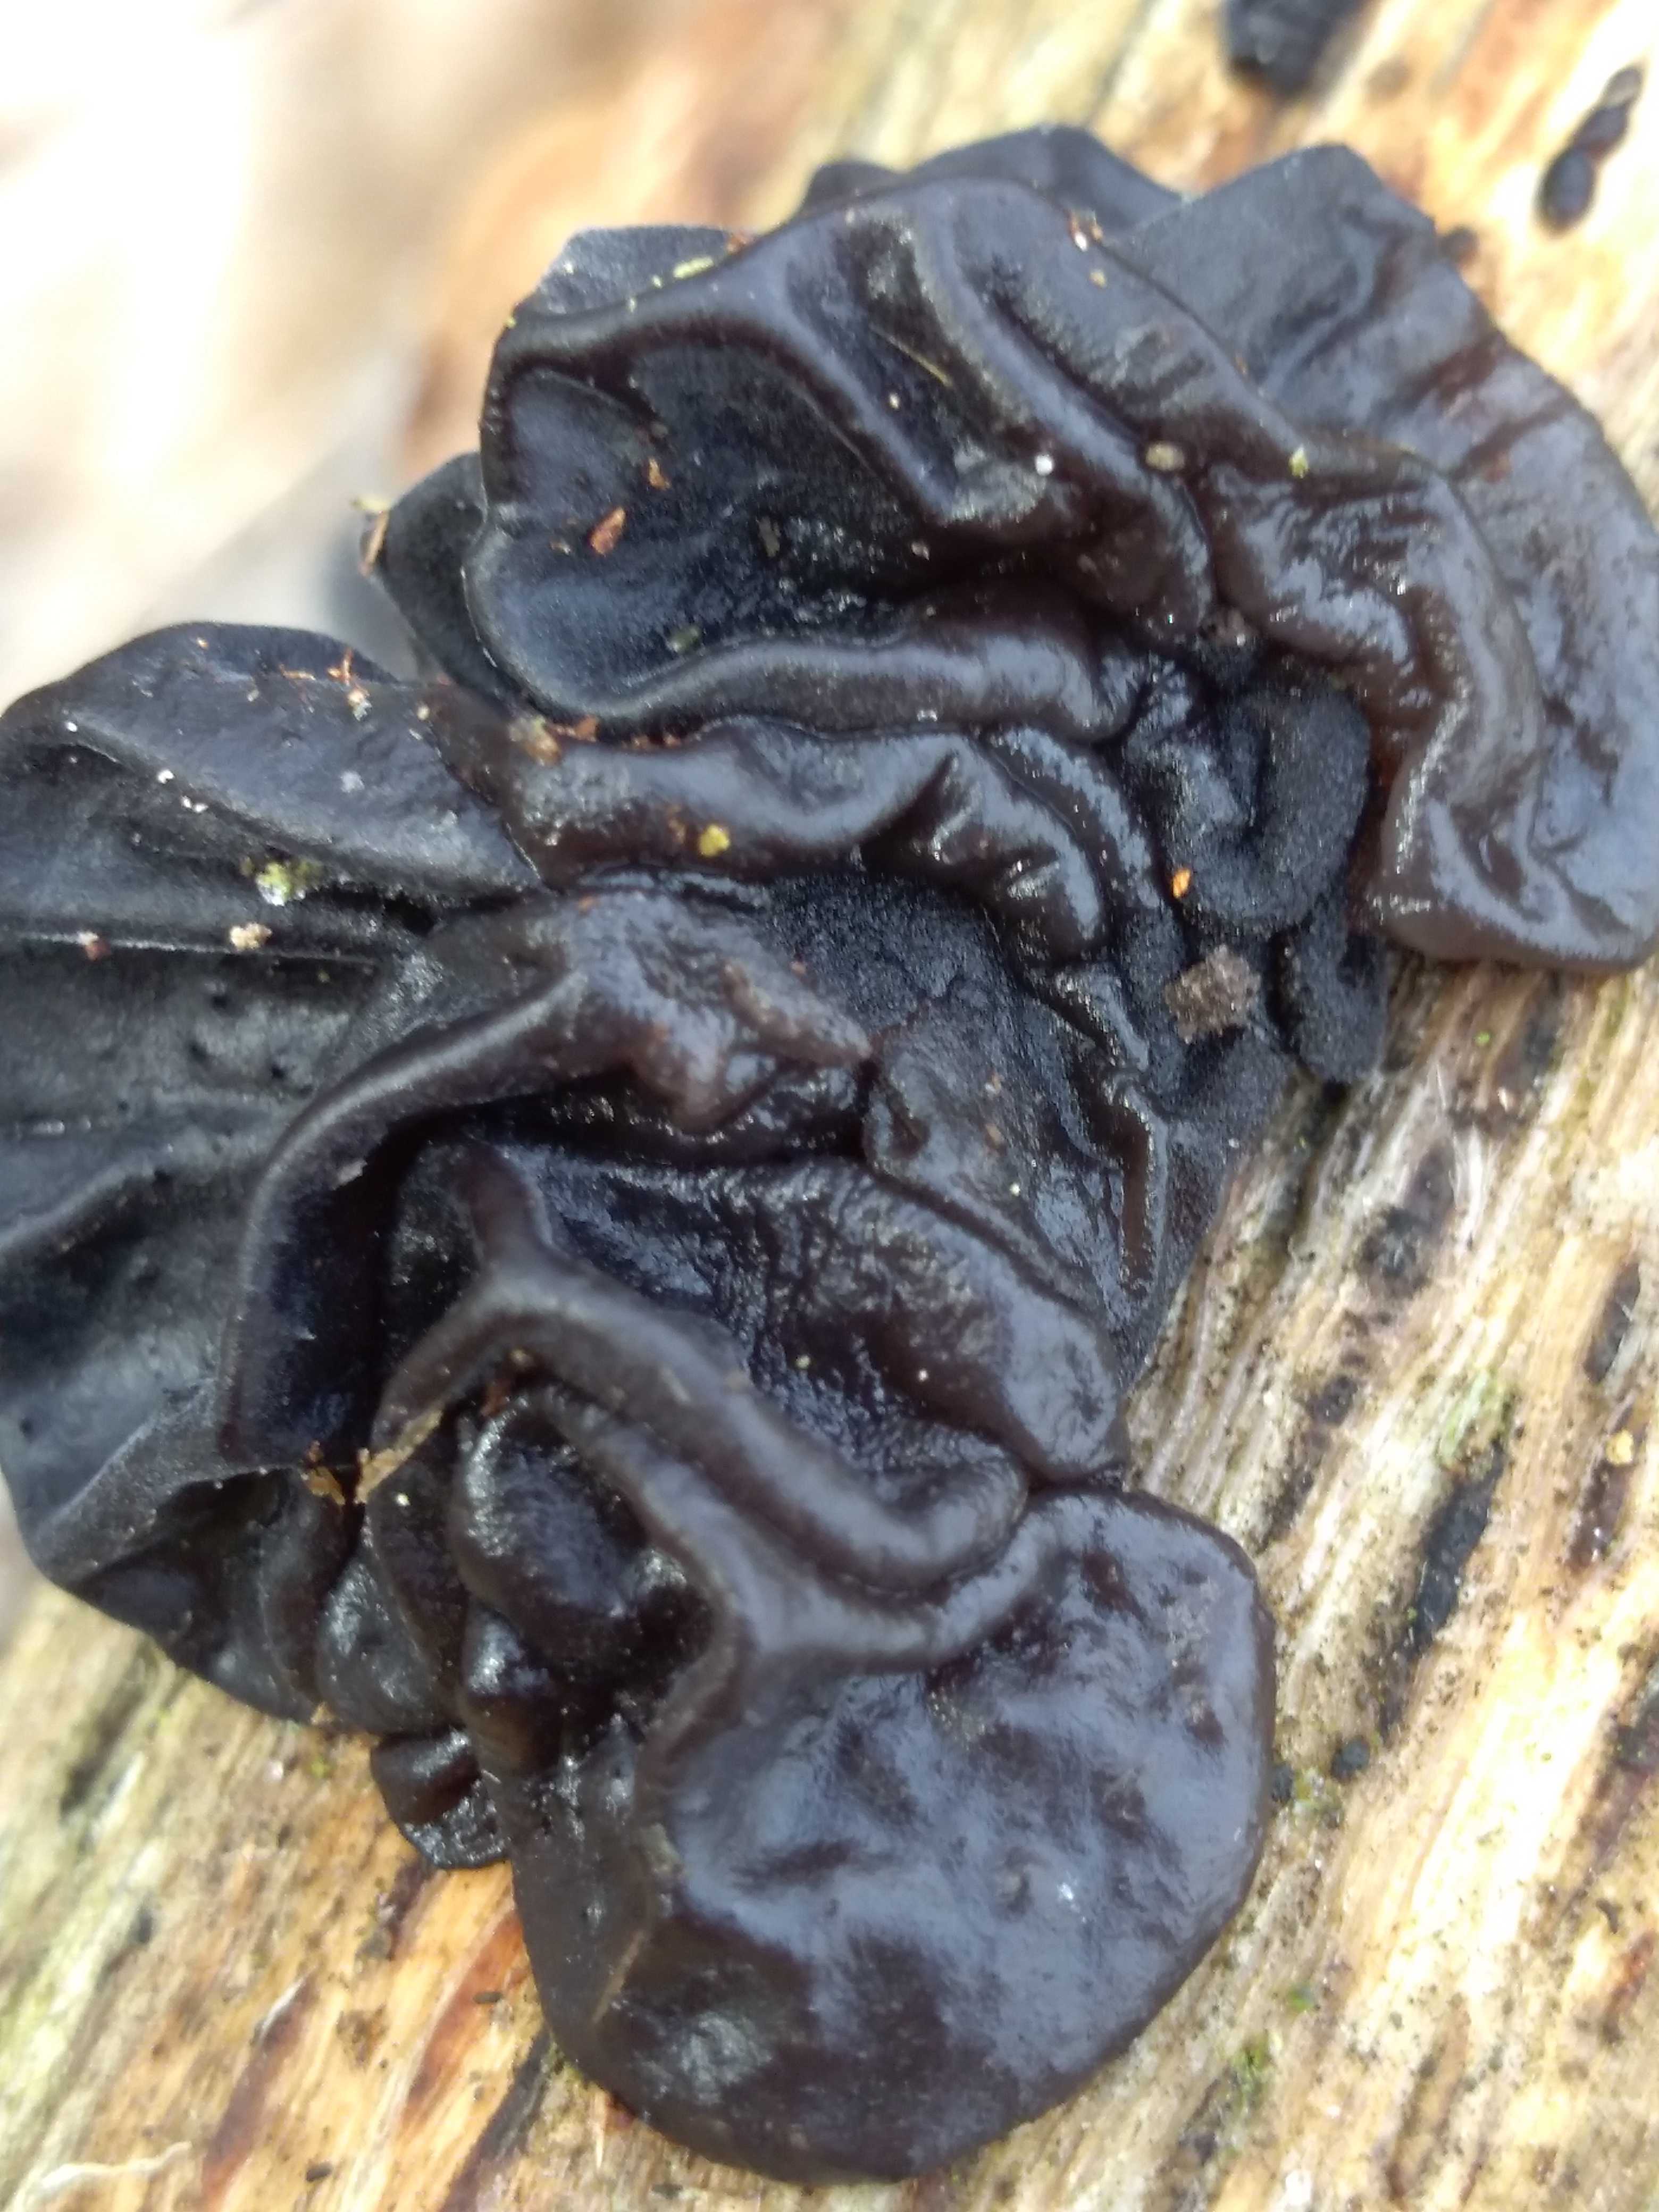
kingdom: Fungi
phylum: Basidiomycota
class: Agaricomycetes
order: Auriculariales
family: Auriculariaceae
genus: Exidia
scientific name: Exidia nigricans
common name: almindelig bævretop
